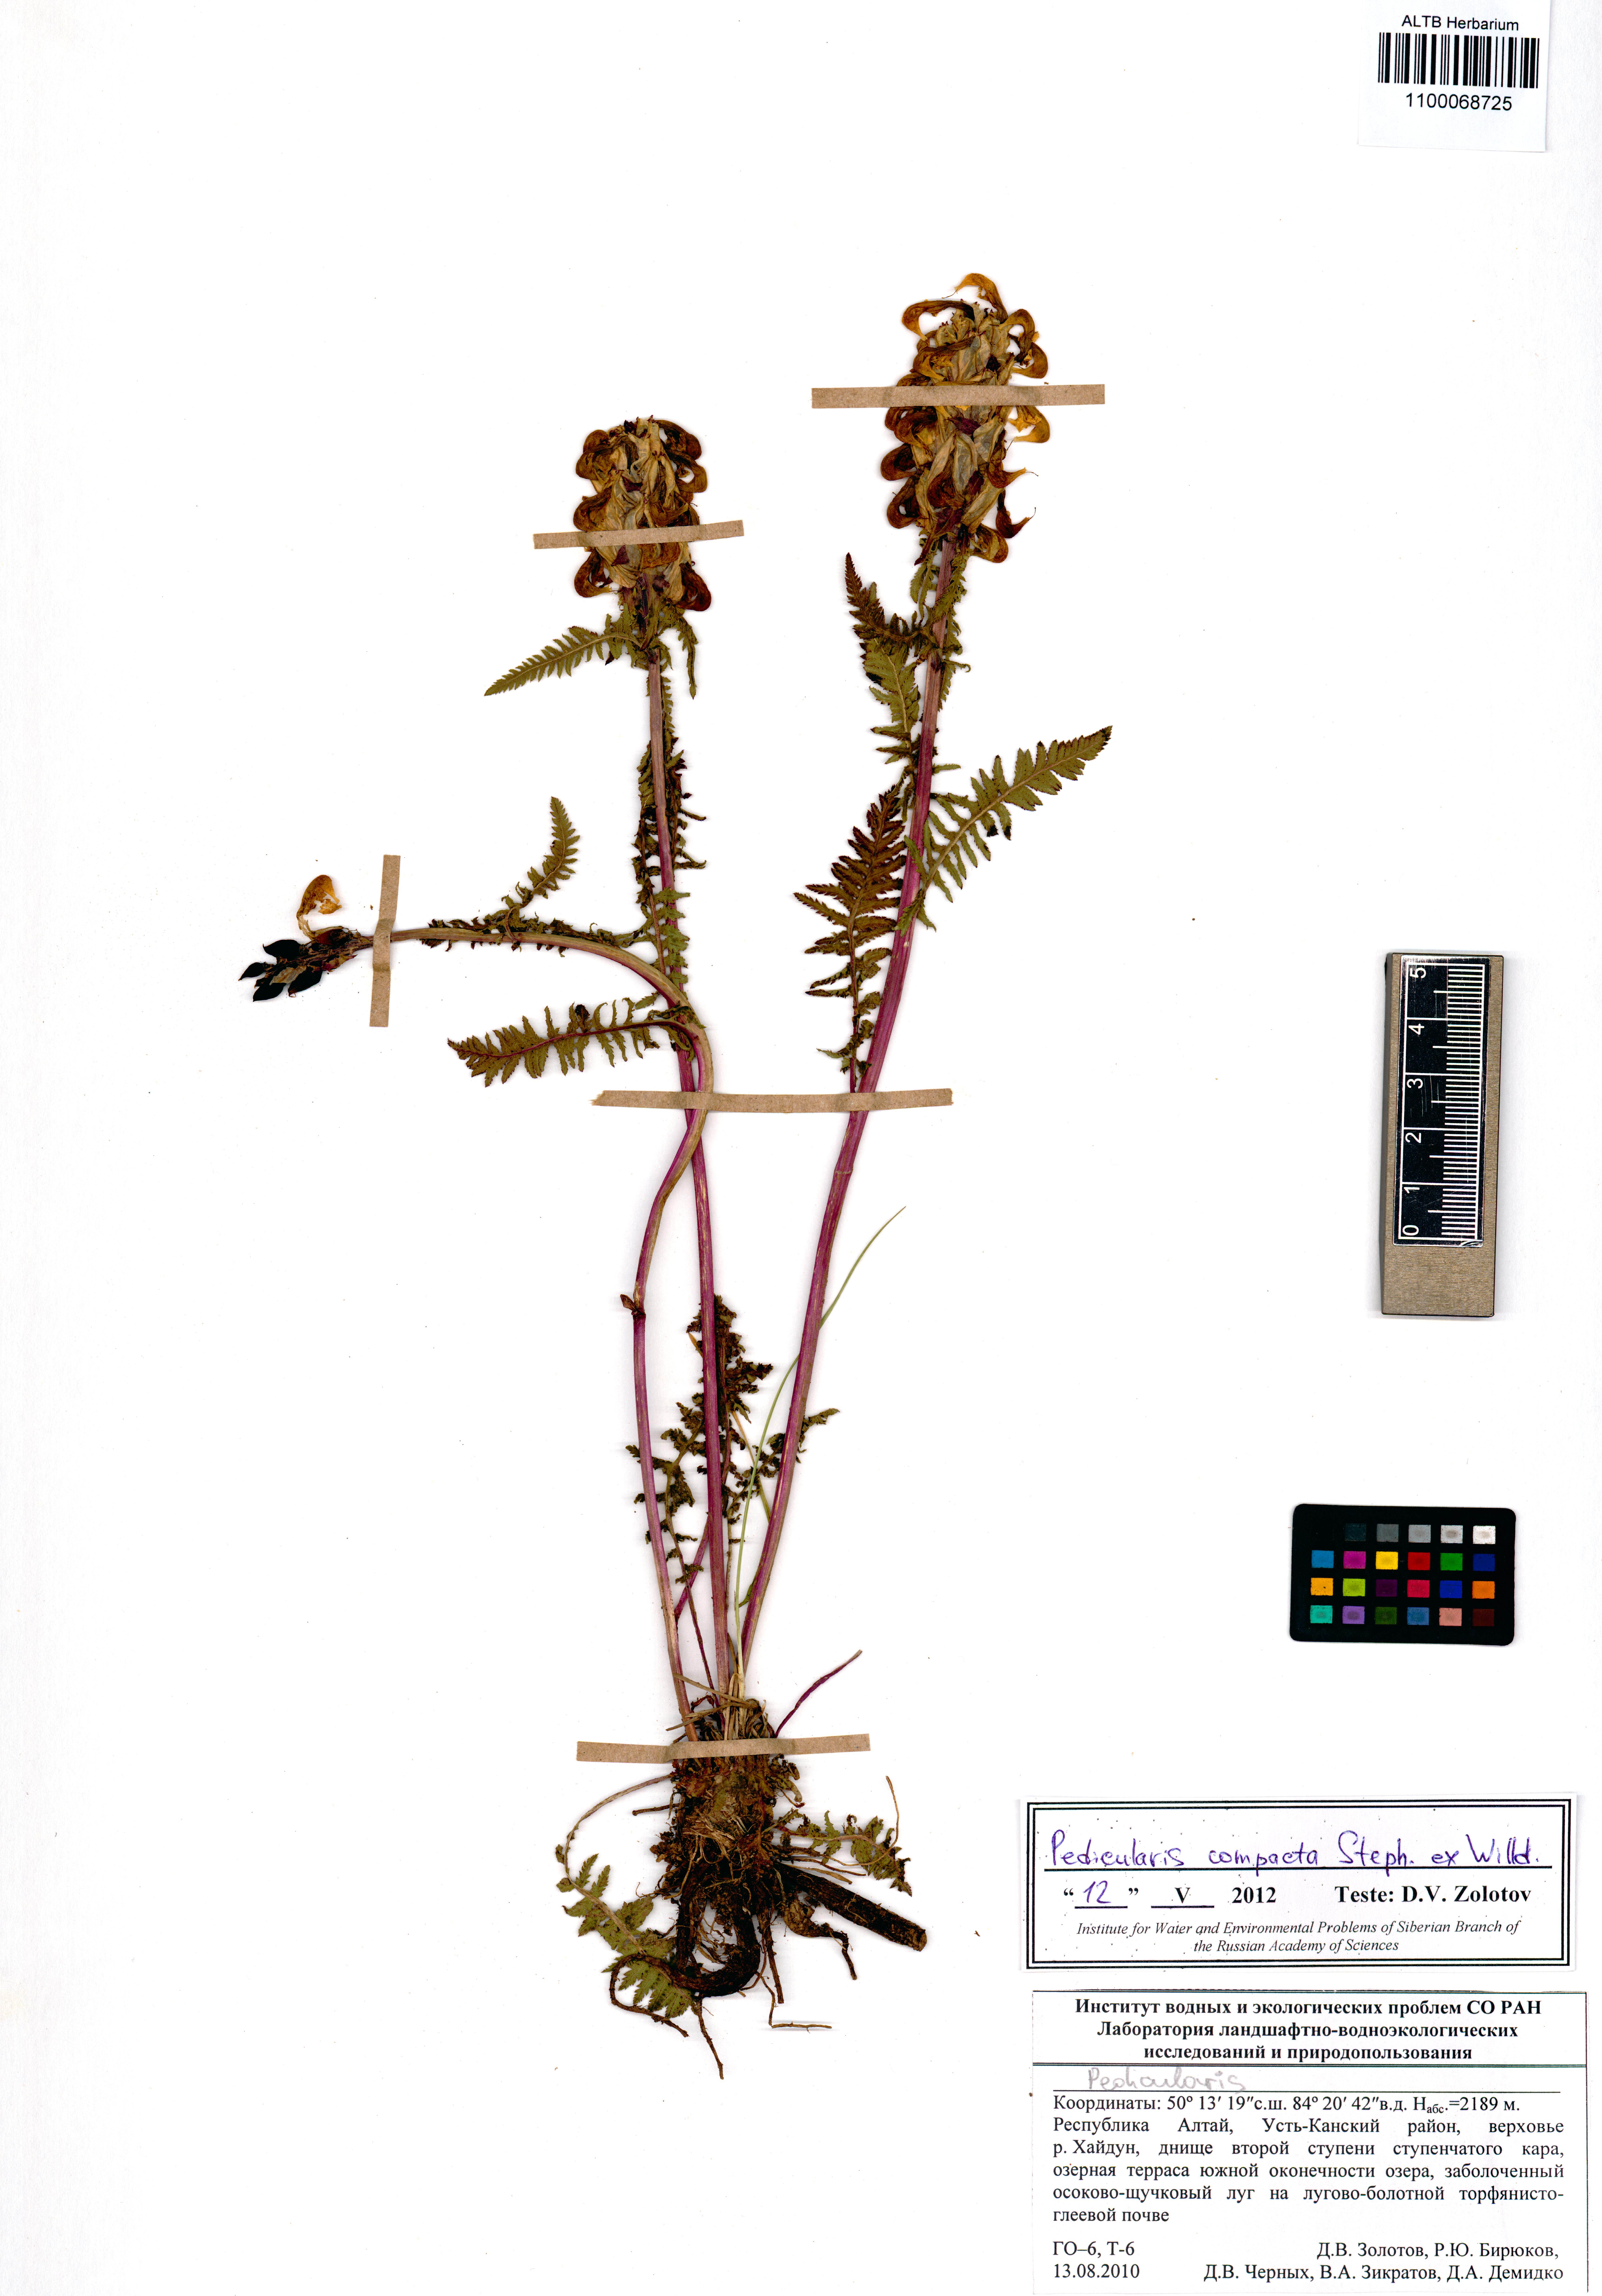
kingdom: Plantae
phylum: Tracheophyta
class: Magnoliopsida
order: Lamiales
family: Orobanchaceae
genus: Pedicularis
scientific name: Pedicularis compacta
